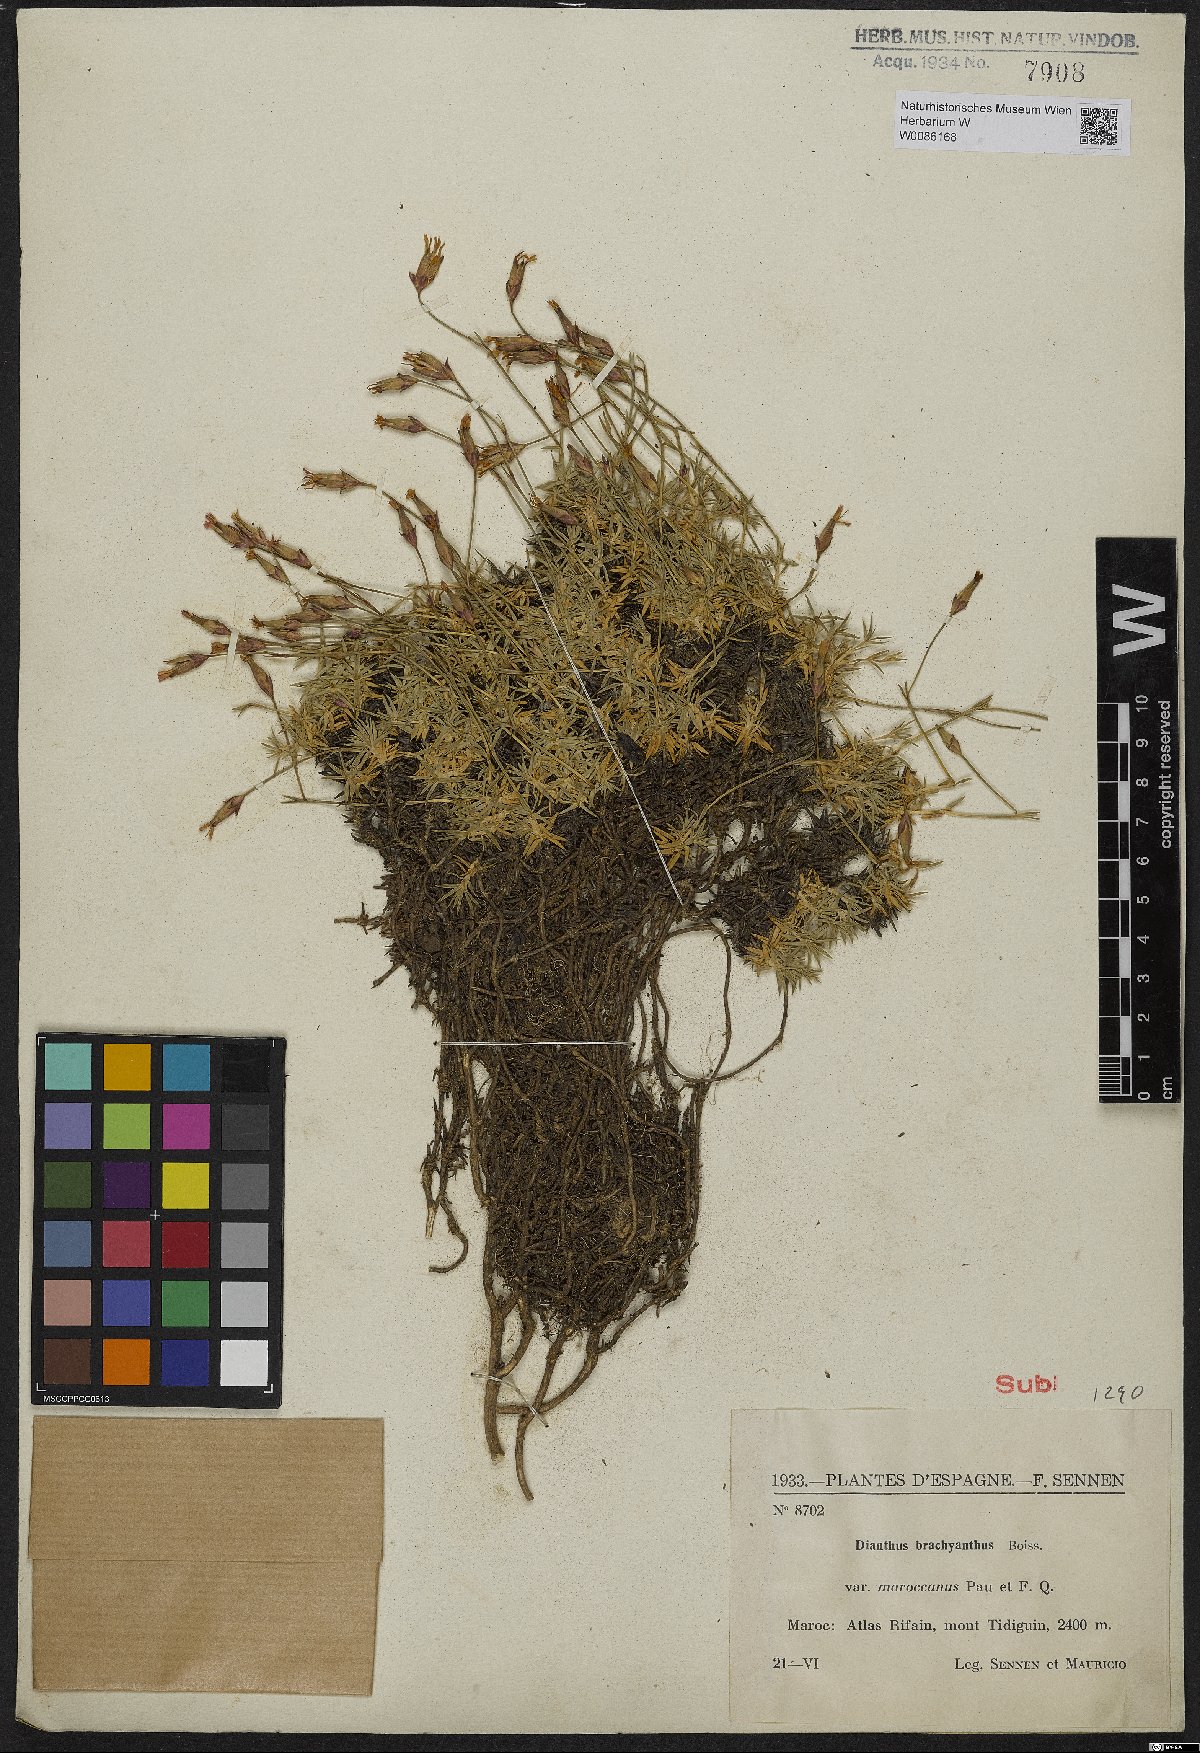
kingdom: Plantae
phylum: Tracheophyta
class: Magnoliopsida
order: Caryophyllales
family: Caryophyllaceae
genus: Dianthus
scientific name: Dianthus subacaulis
